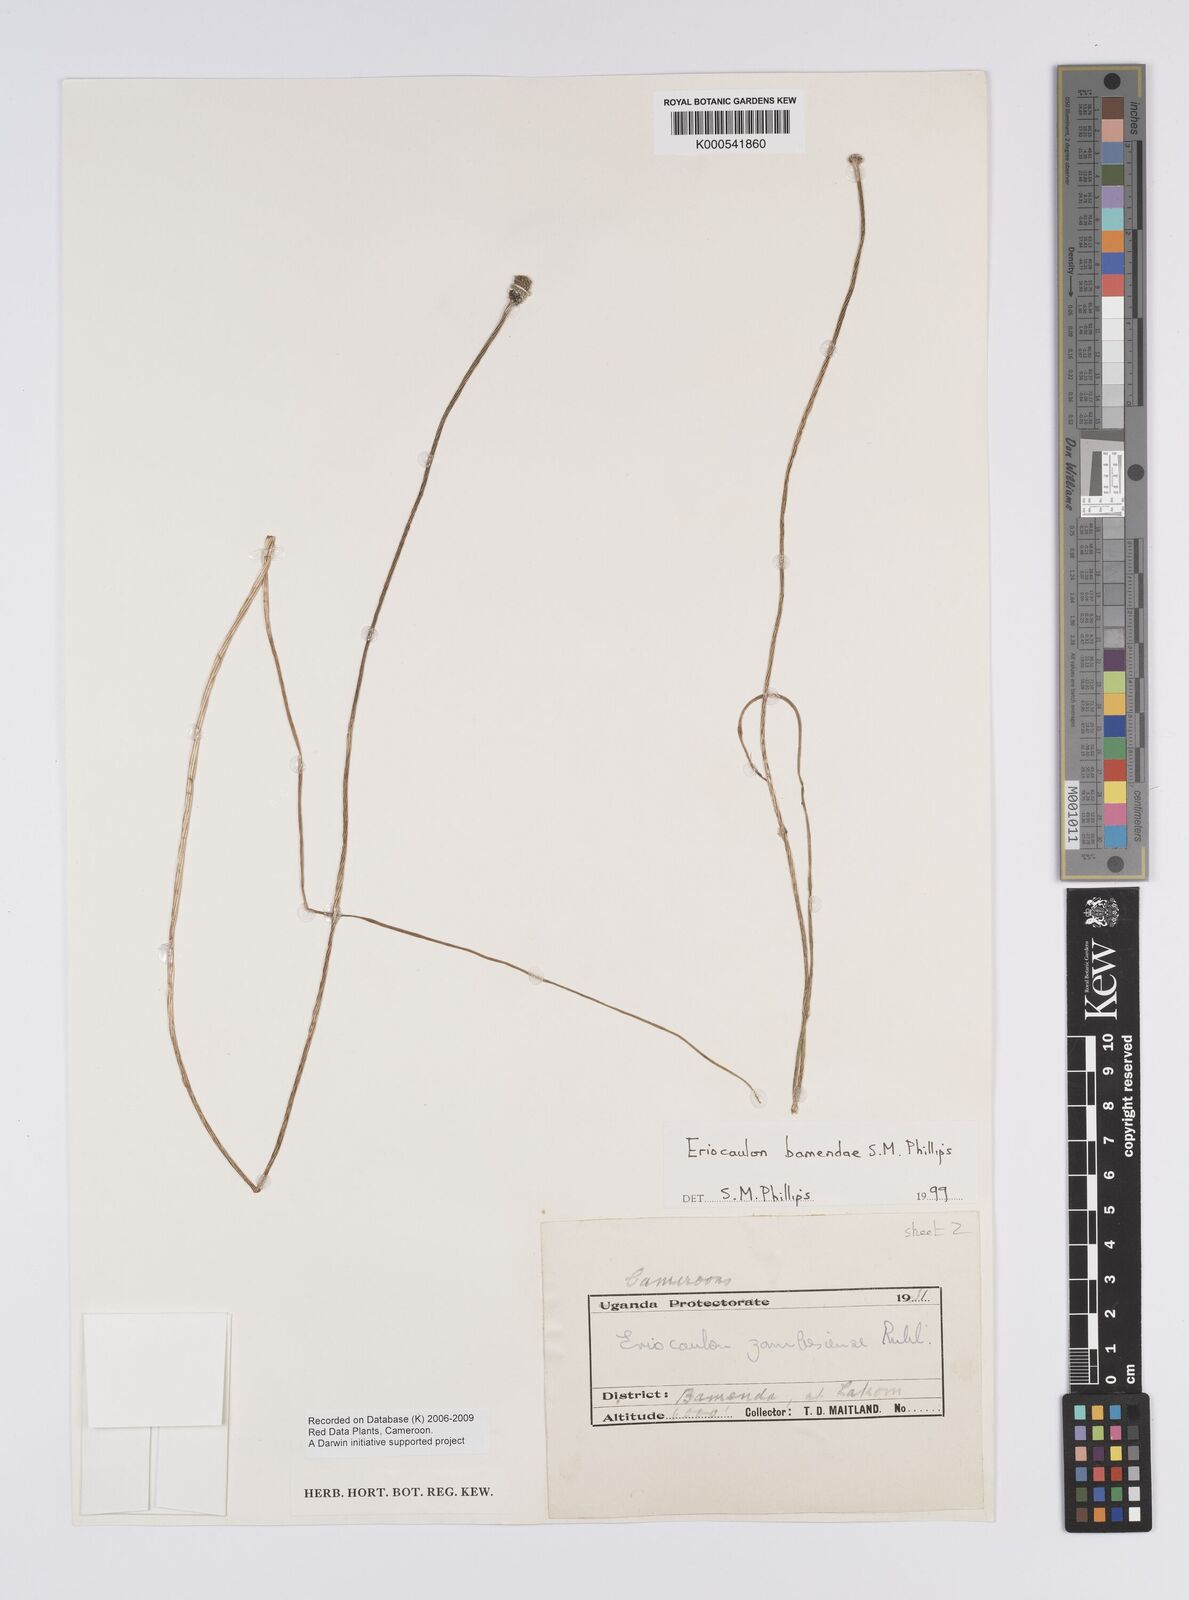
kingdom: Plantae
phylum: Tracheophyta
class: Liliopsida
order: Poales
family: Eriocaulaceae
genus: Eriocaulon
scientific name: Eriocaulon bamendae
